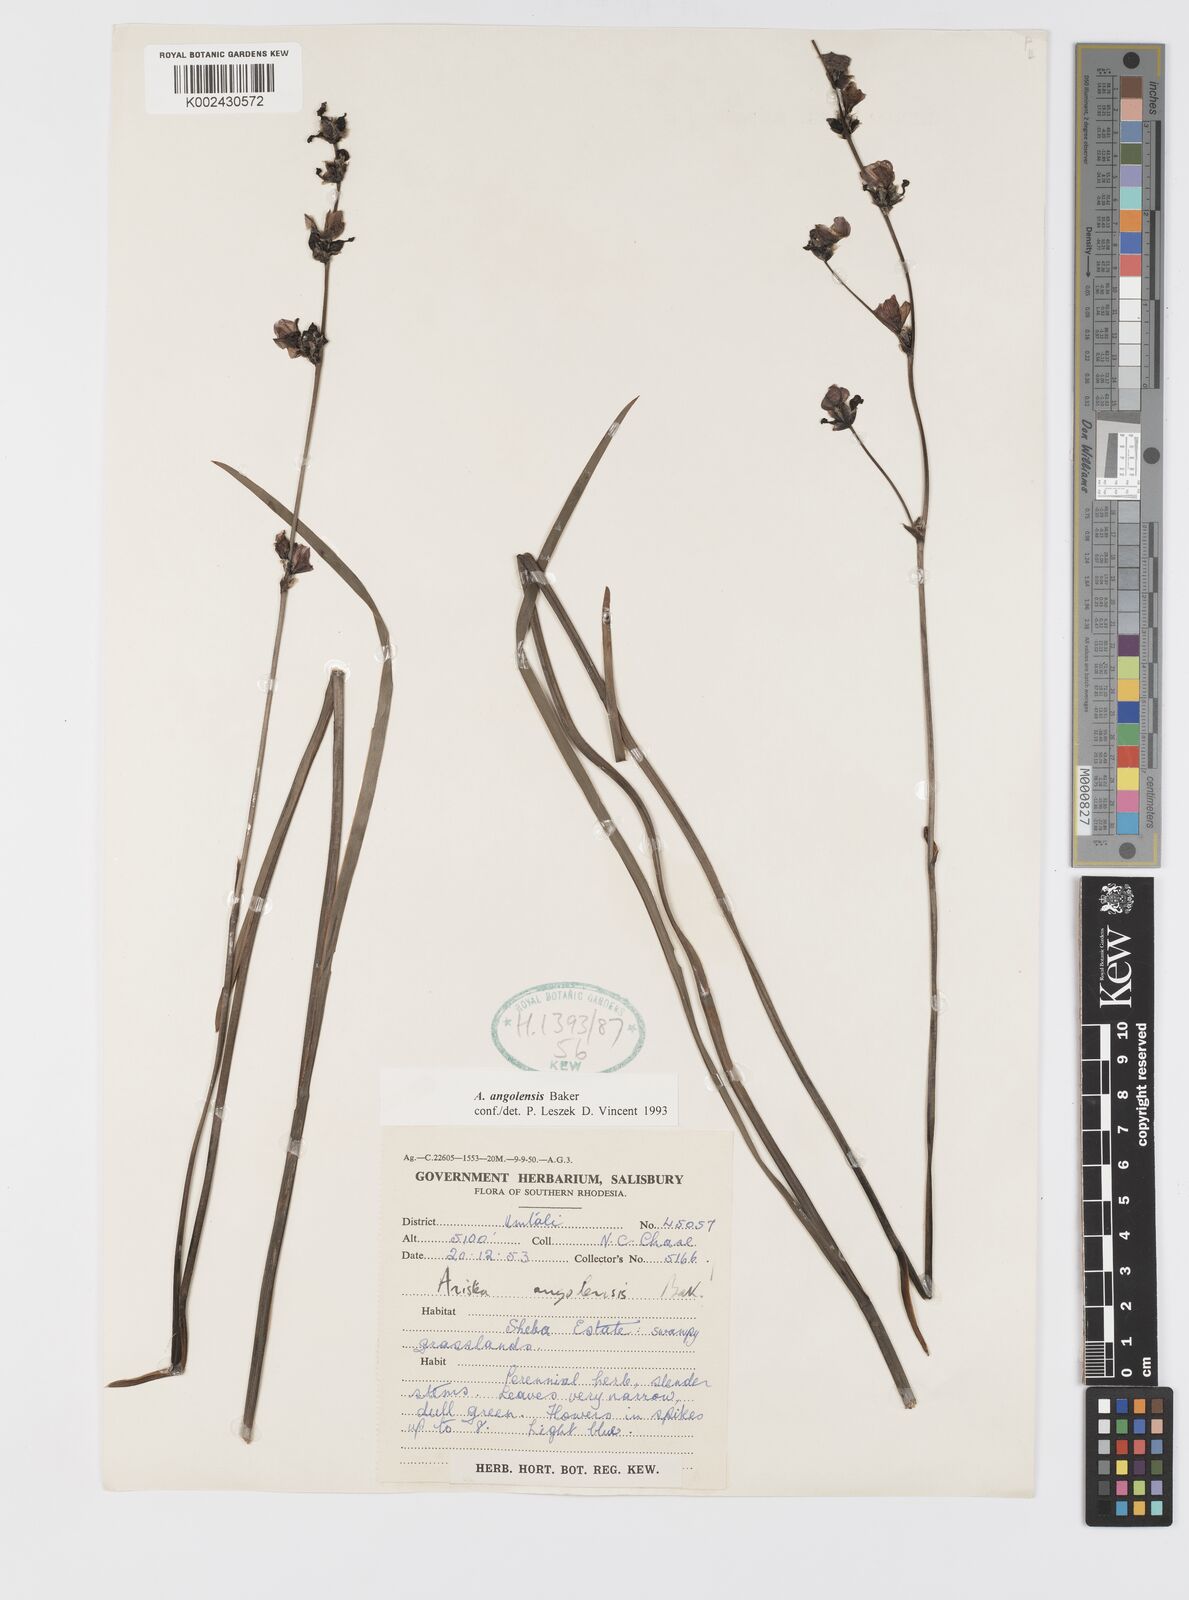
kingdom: Plantae
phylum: Tracheophyta
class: Liliopsida
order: Asparagales
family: Iridaceae
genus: Aristea
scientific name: Aristea angolensis
